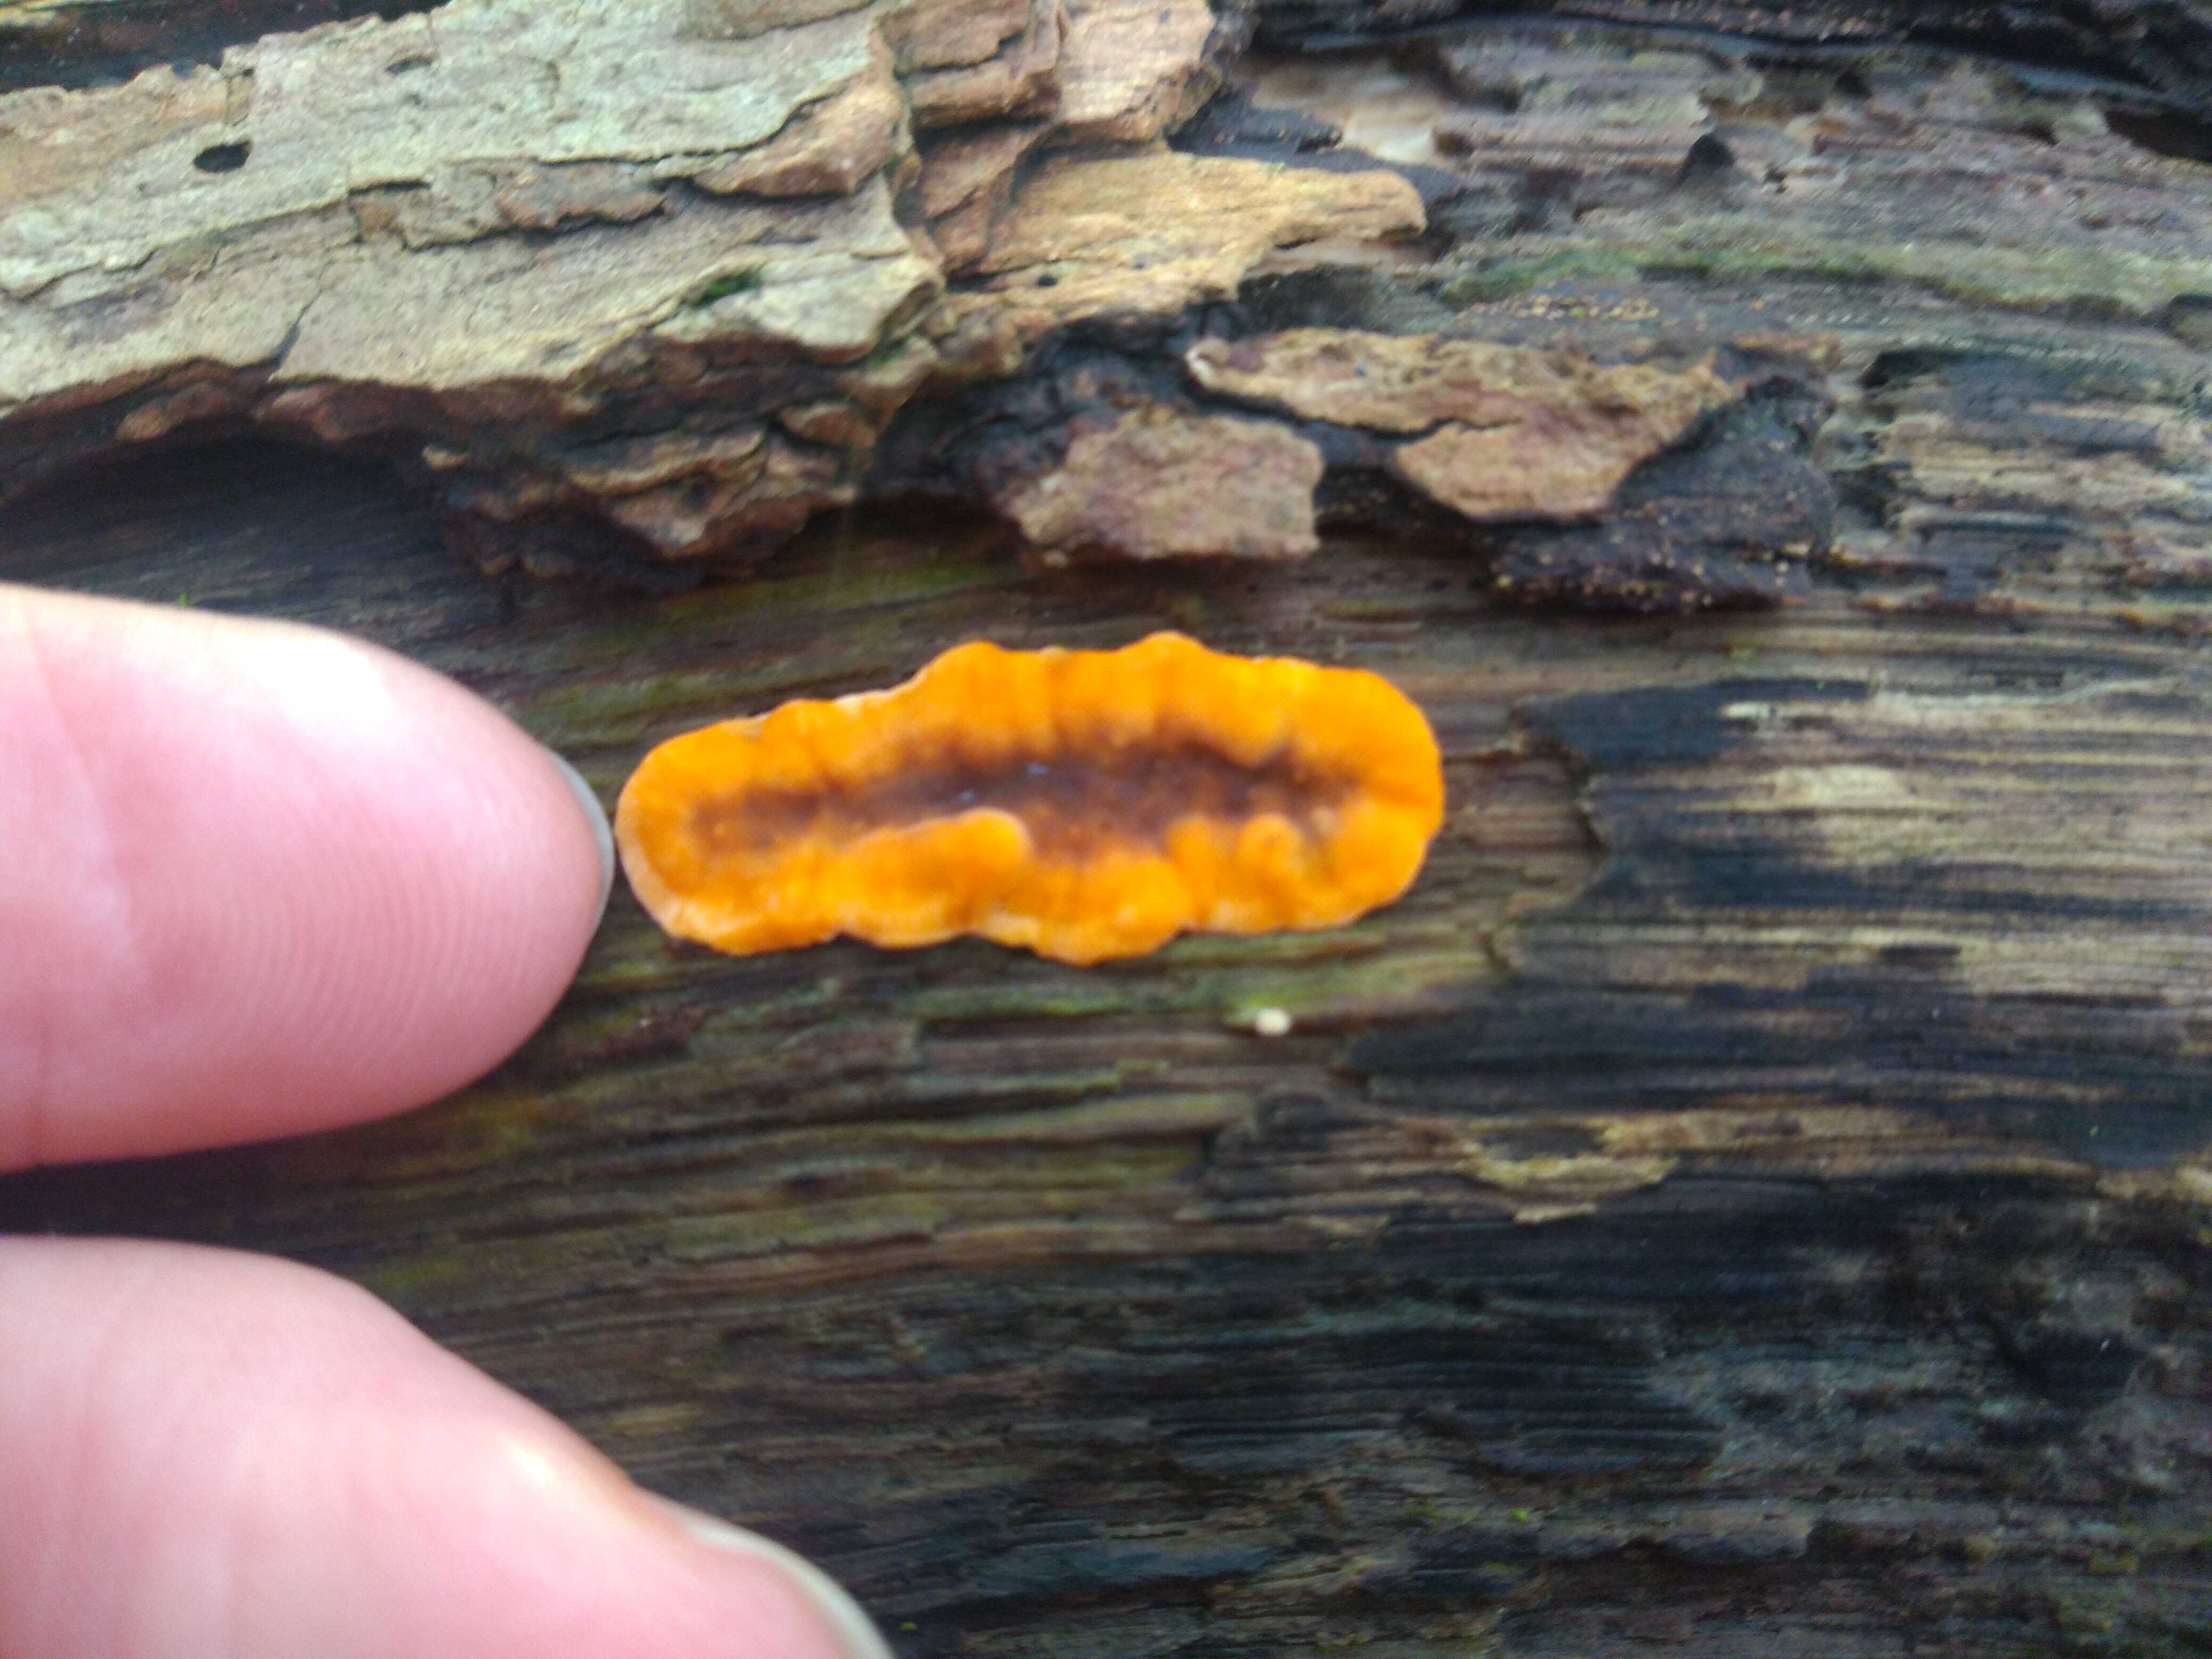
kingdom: Fungi
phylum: Basidiomycota
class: Agaricomycetes
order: Russulales
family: Stereaceae
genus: Stereum
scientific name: Stereum hirsutum
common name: håret lædersvamp
